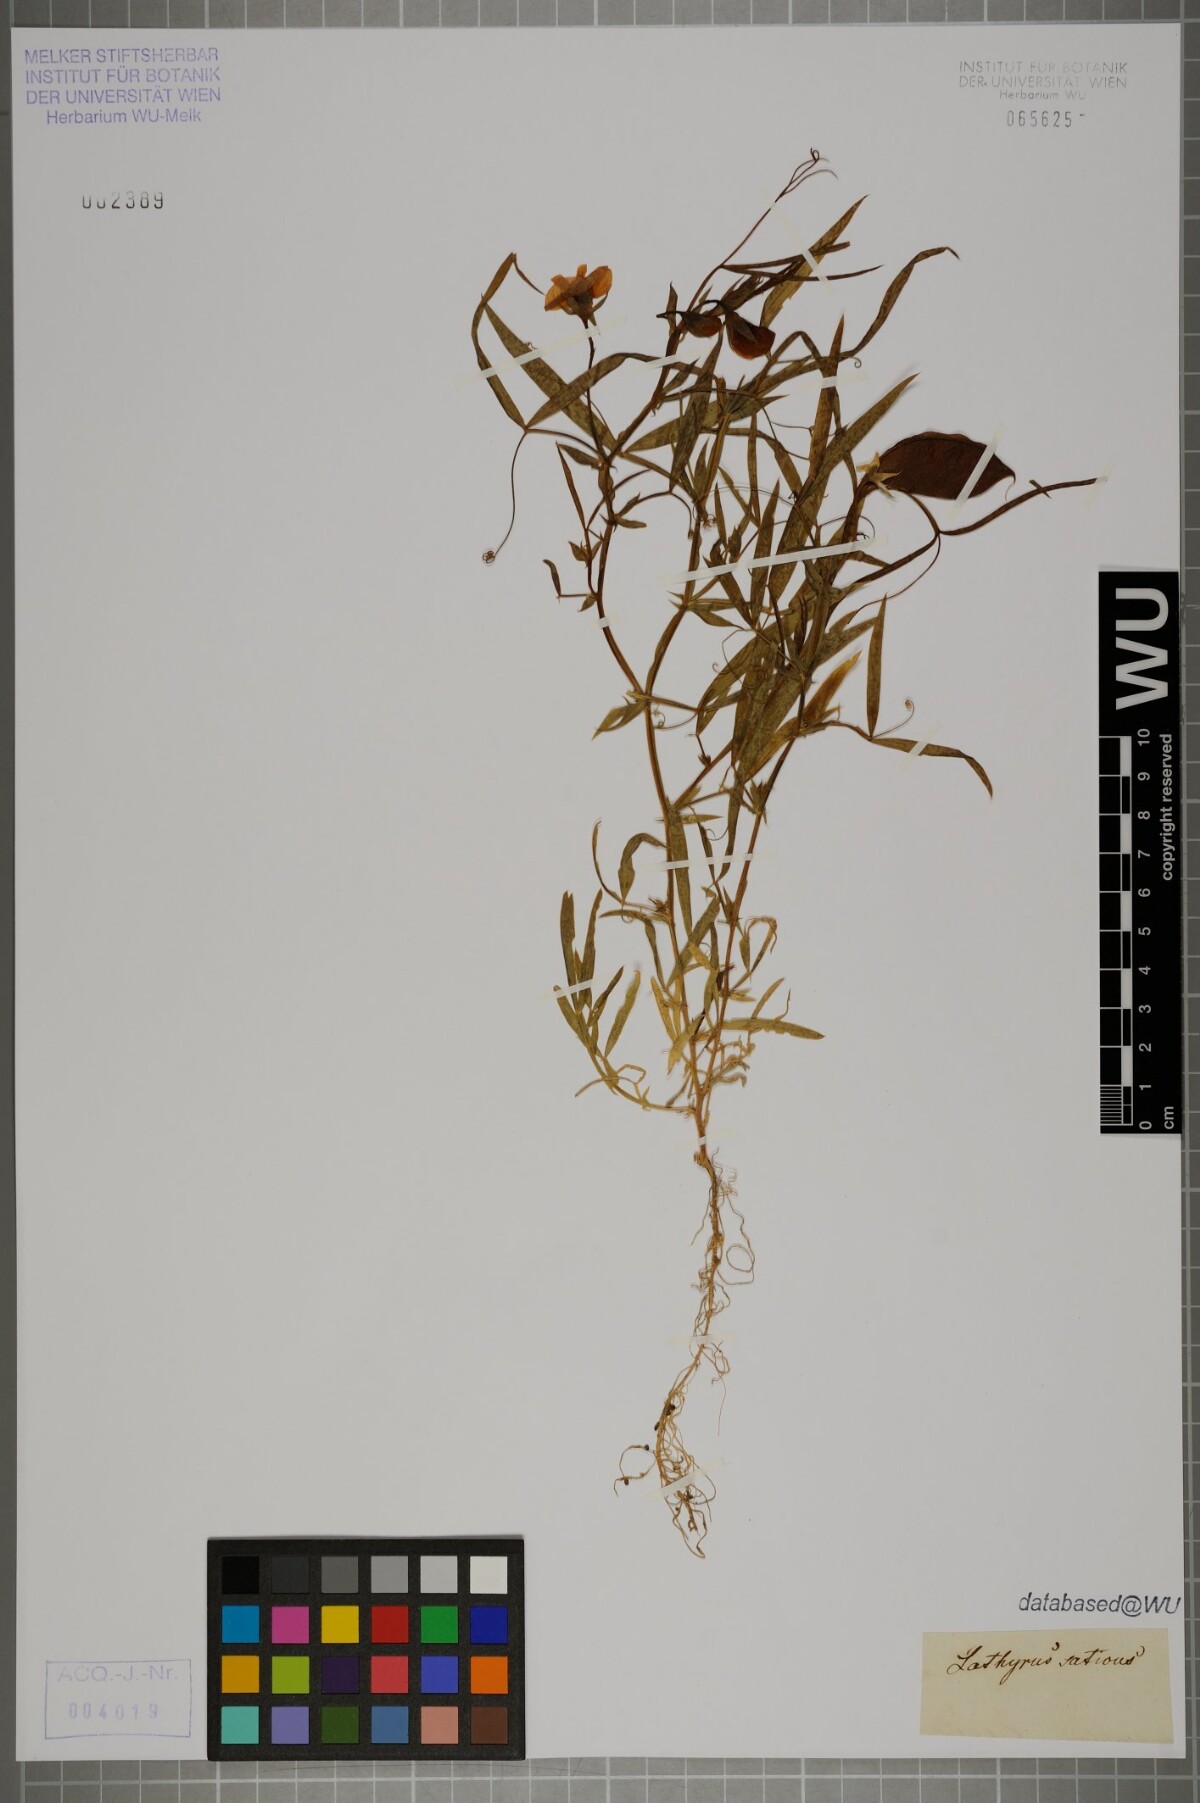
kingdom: Plantae
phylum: Tracheophyta
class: Magnoliopsida
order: Fabales
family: Fabaceae
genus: Lathyrus
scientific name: Lathyrus sativus
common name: Indian pea
